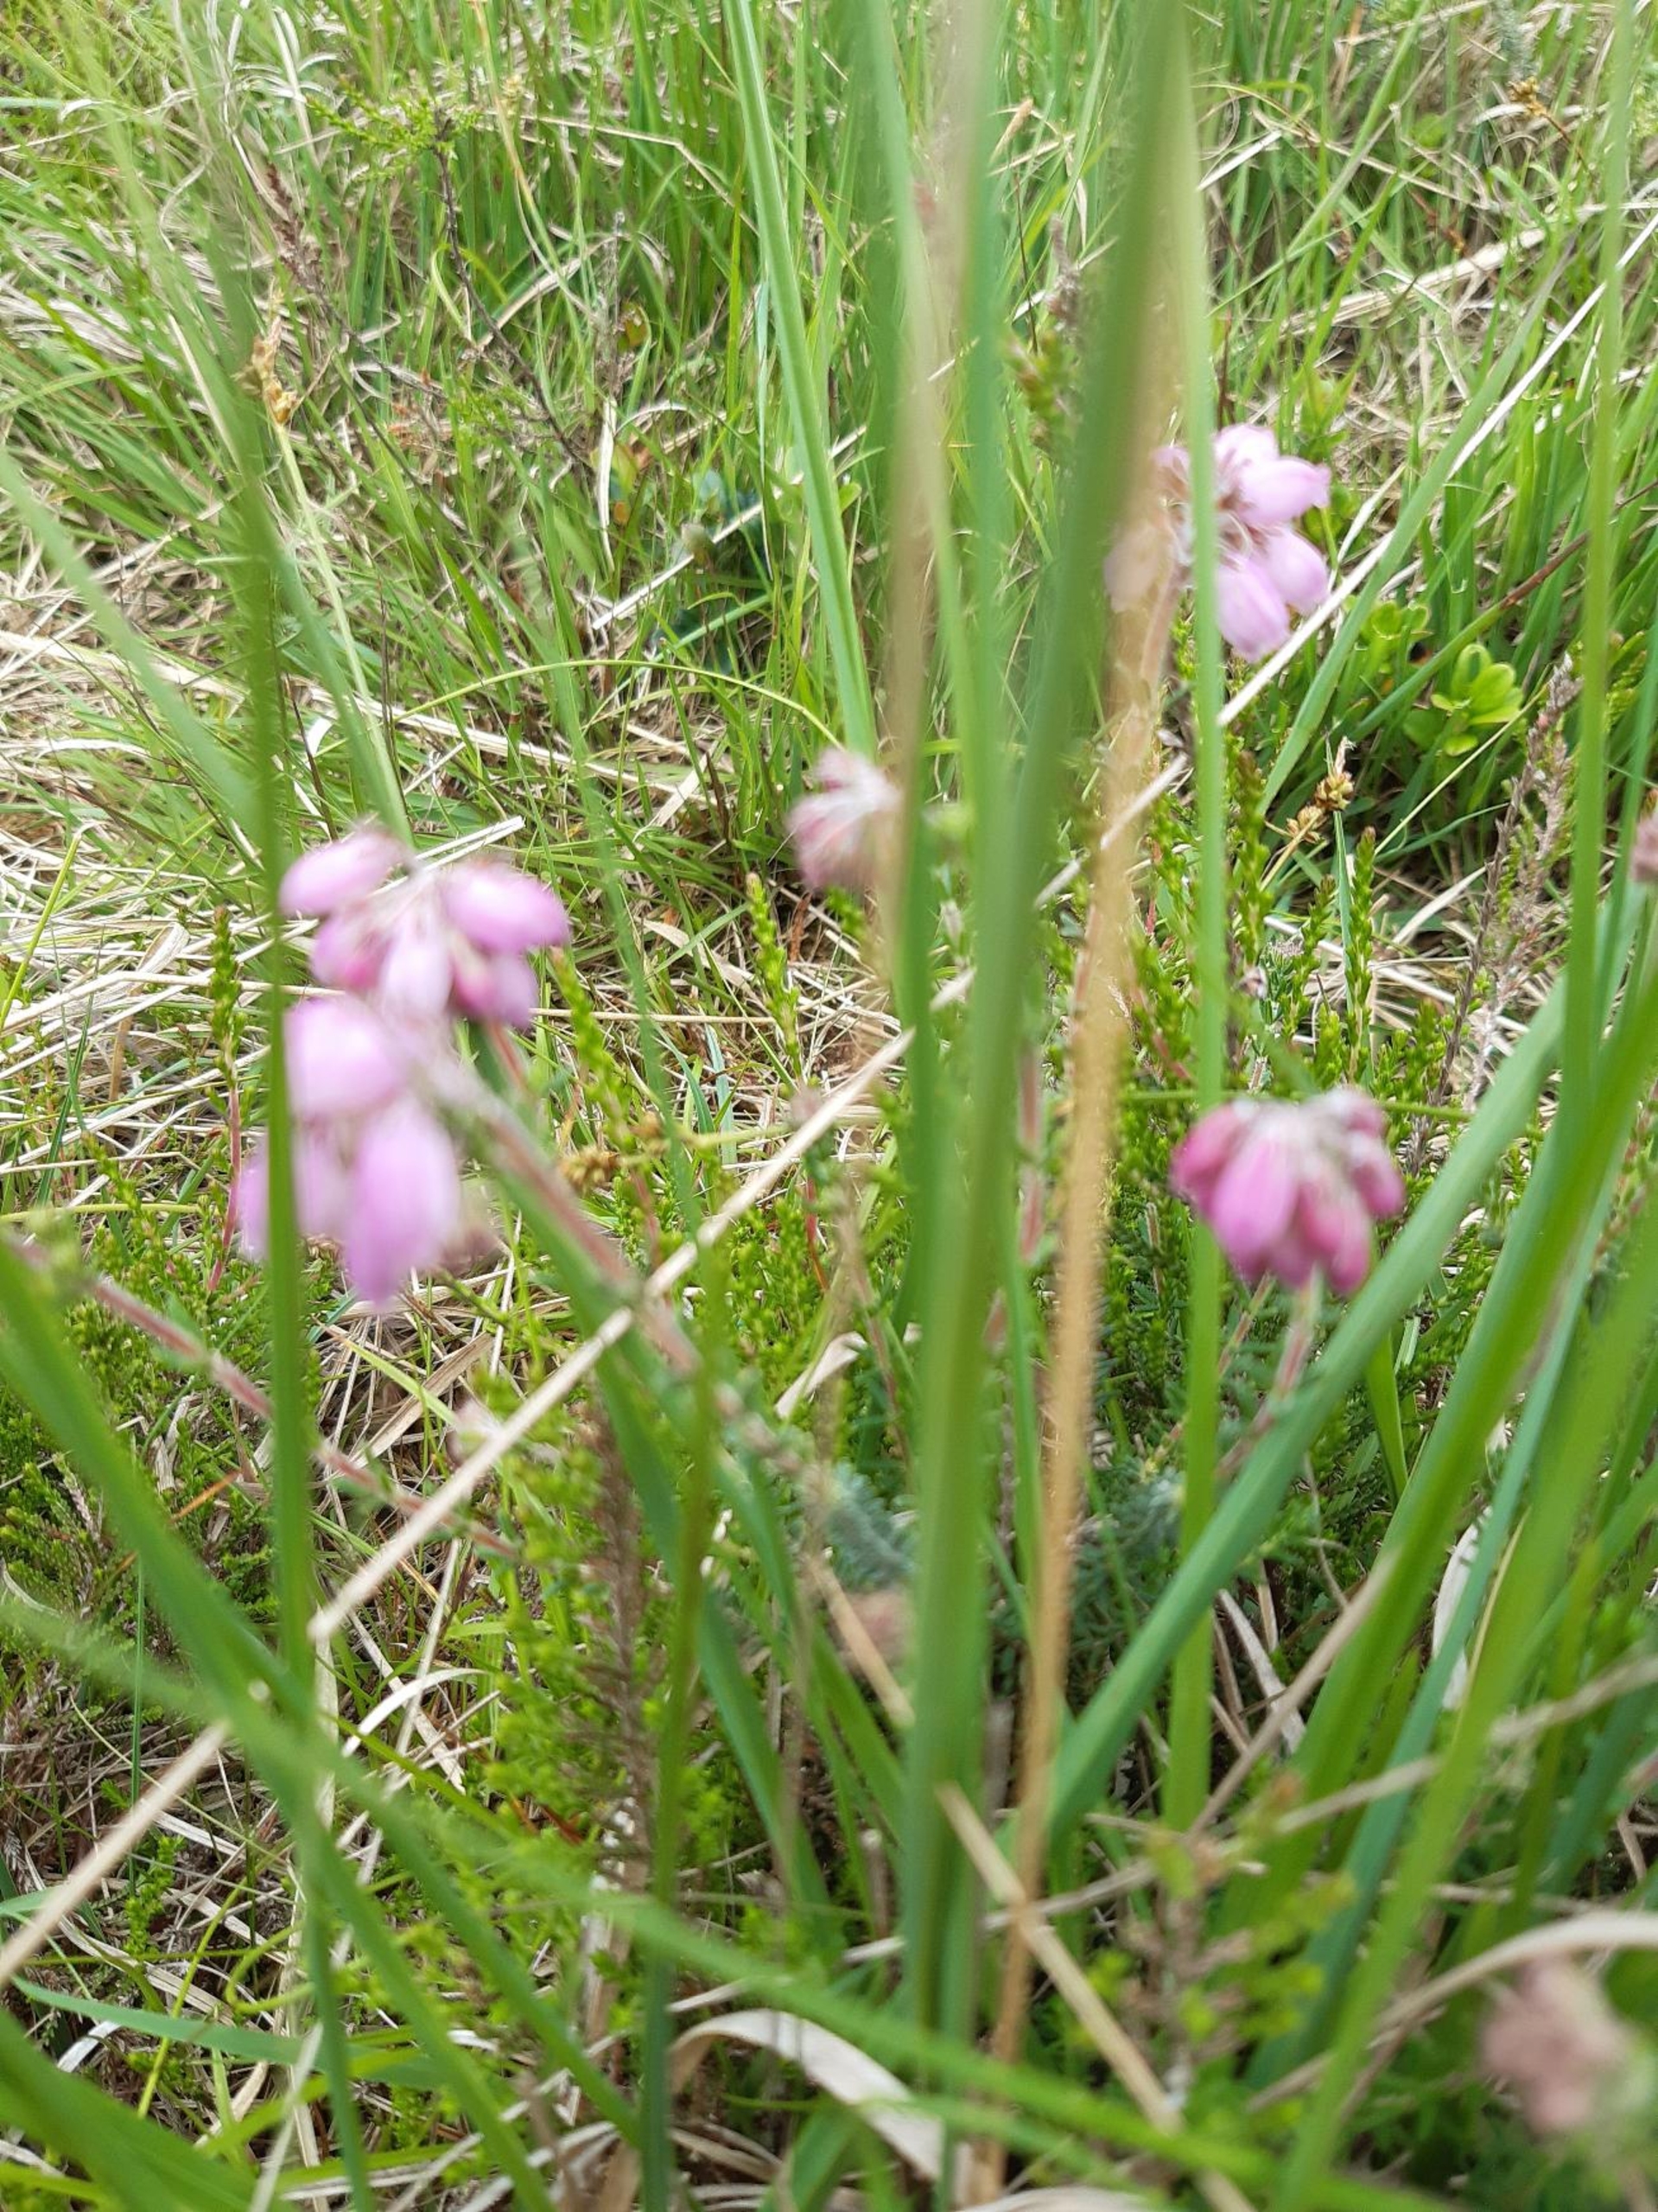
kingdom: Plantae
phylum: Tracheophyta
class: Magnoliopsida
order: Ericales
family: Ericaceae
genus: Erica
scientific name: Erica tetralix
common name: Klokkelyng
